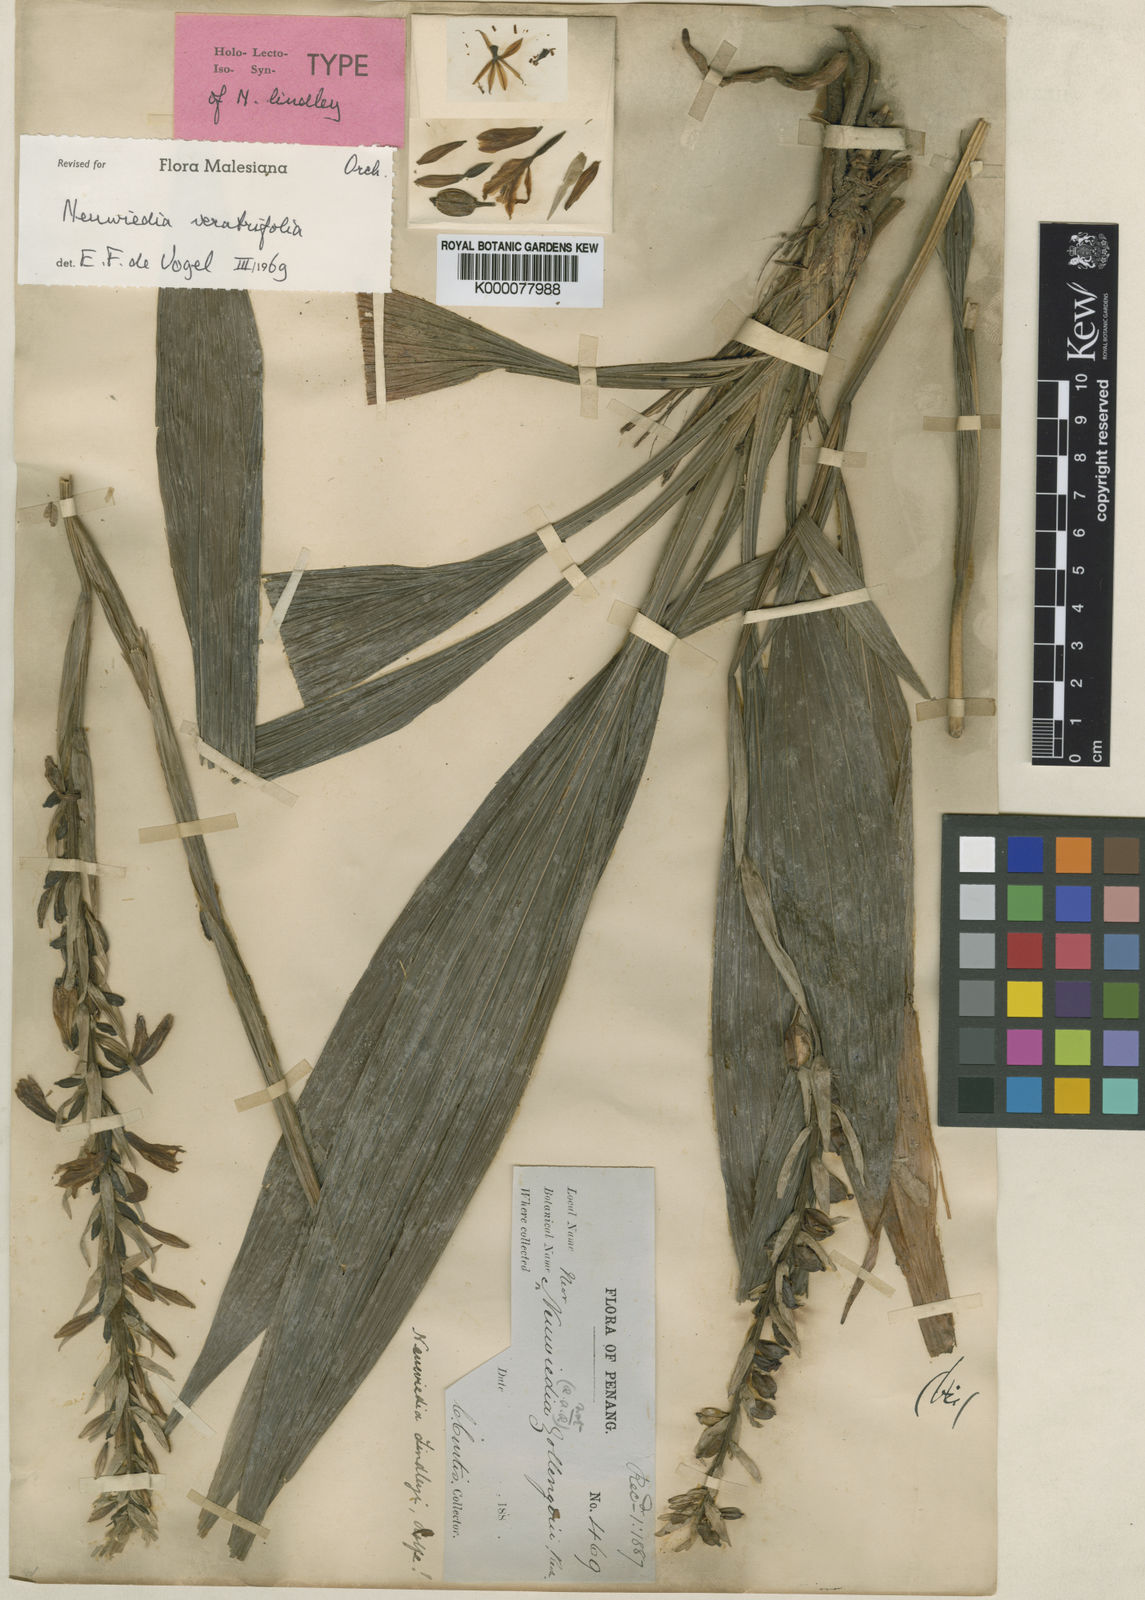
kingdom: Plantae
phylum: Tracheophyta
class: Liliopsida
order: Asparagales
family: Orchidaceae
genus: Neuwiedia
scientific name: Neuwiedia veratrifolia
